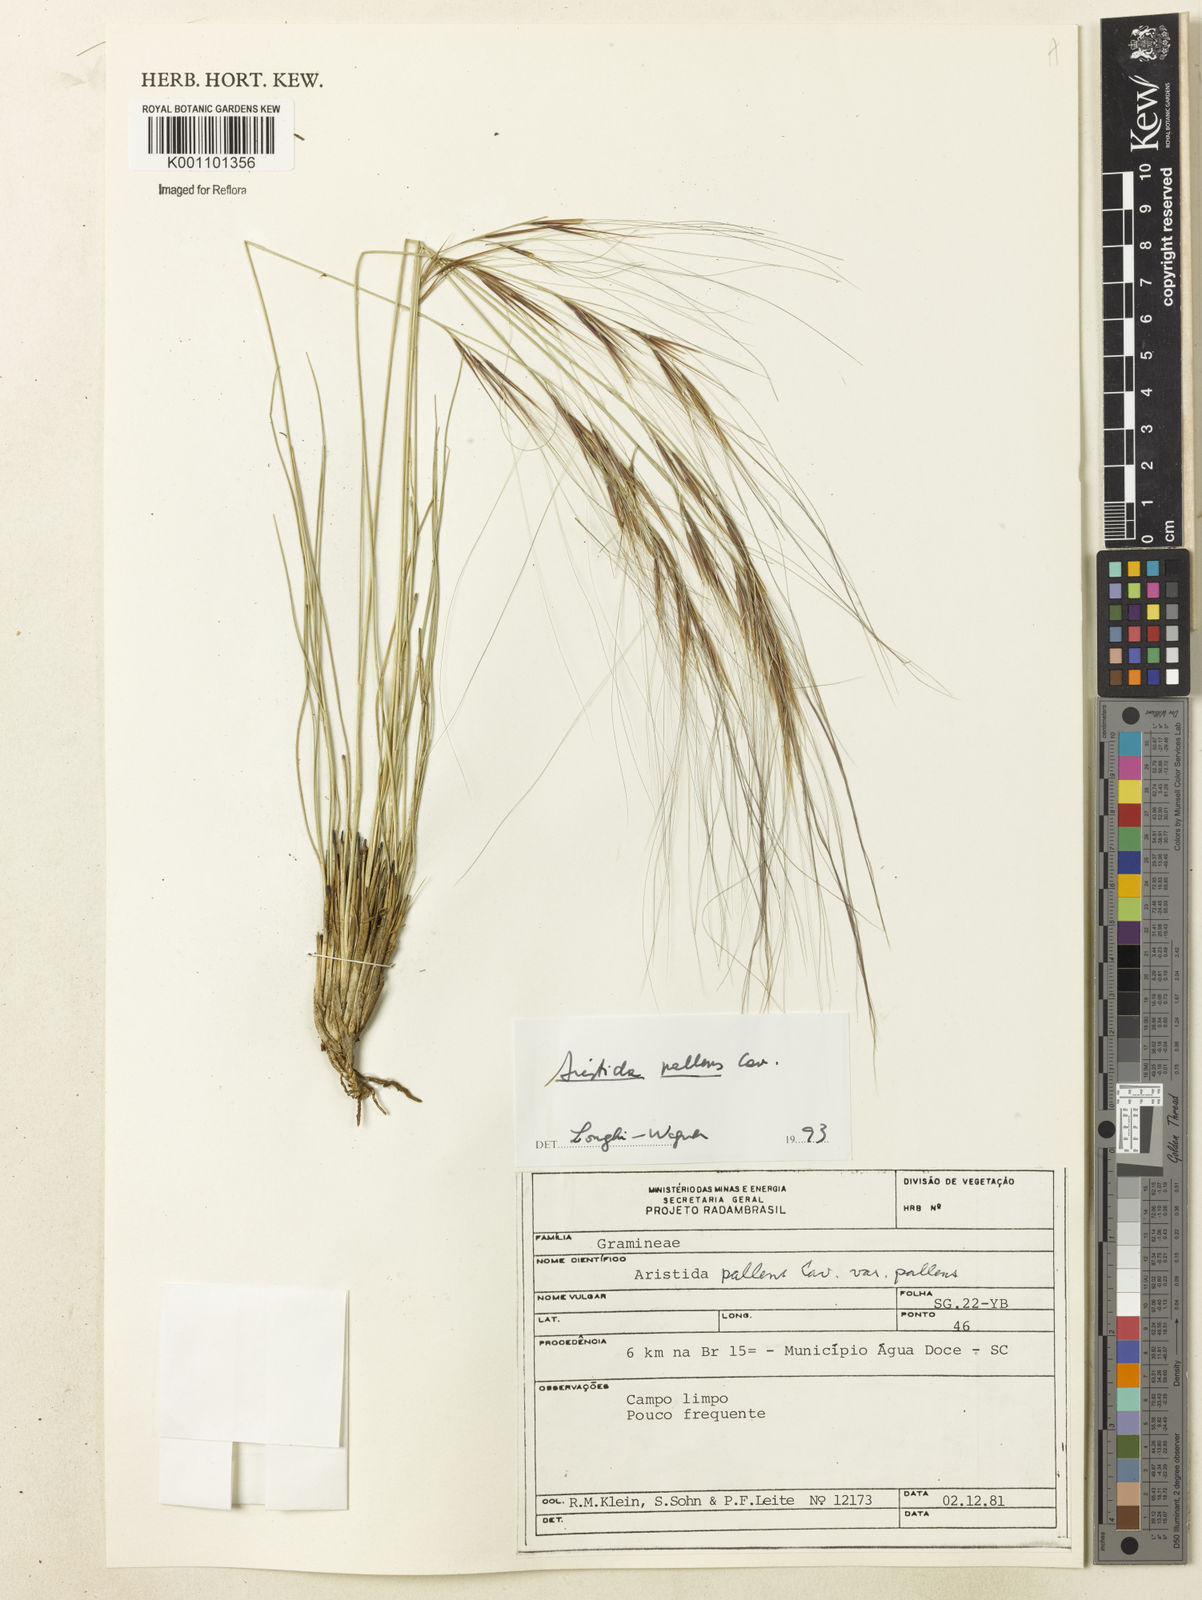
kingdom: Plantae
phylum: Tracheophyta
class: Liliopsida
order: Poales
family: Poaceae
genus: Aristida
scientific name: Aristida pallens
